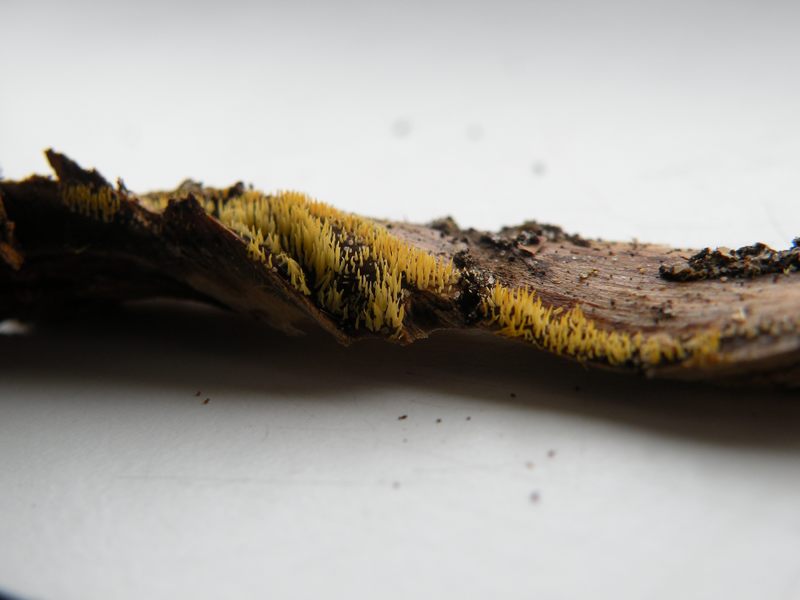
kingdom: Fungi
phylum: Basidiomycota
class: Agaricomycetes
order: Agaricales
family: Clavariaceae
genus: Mucronella
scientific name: Mucronella flava
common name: gul hængepig
